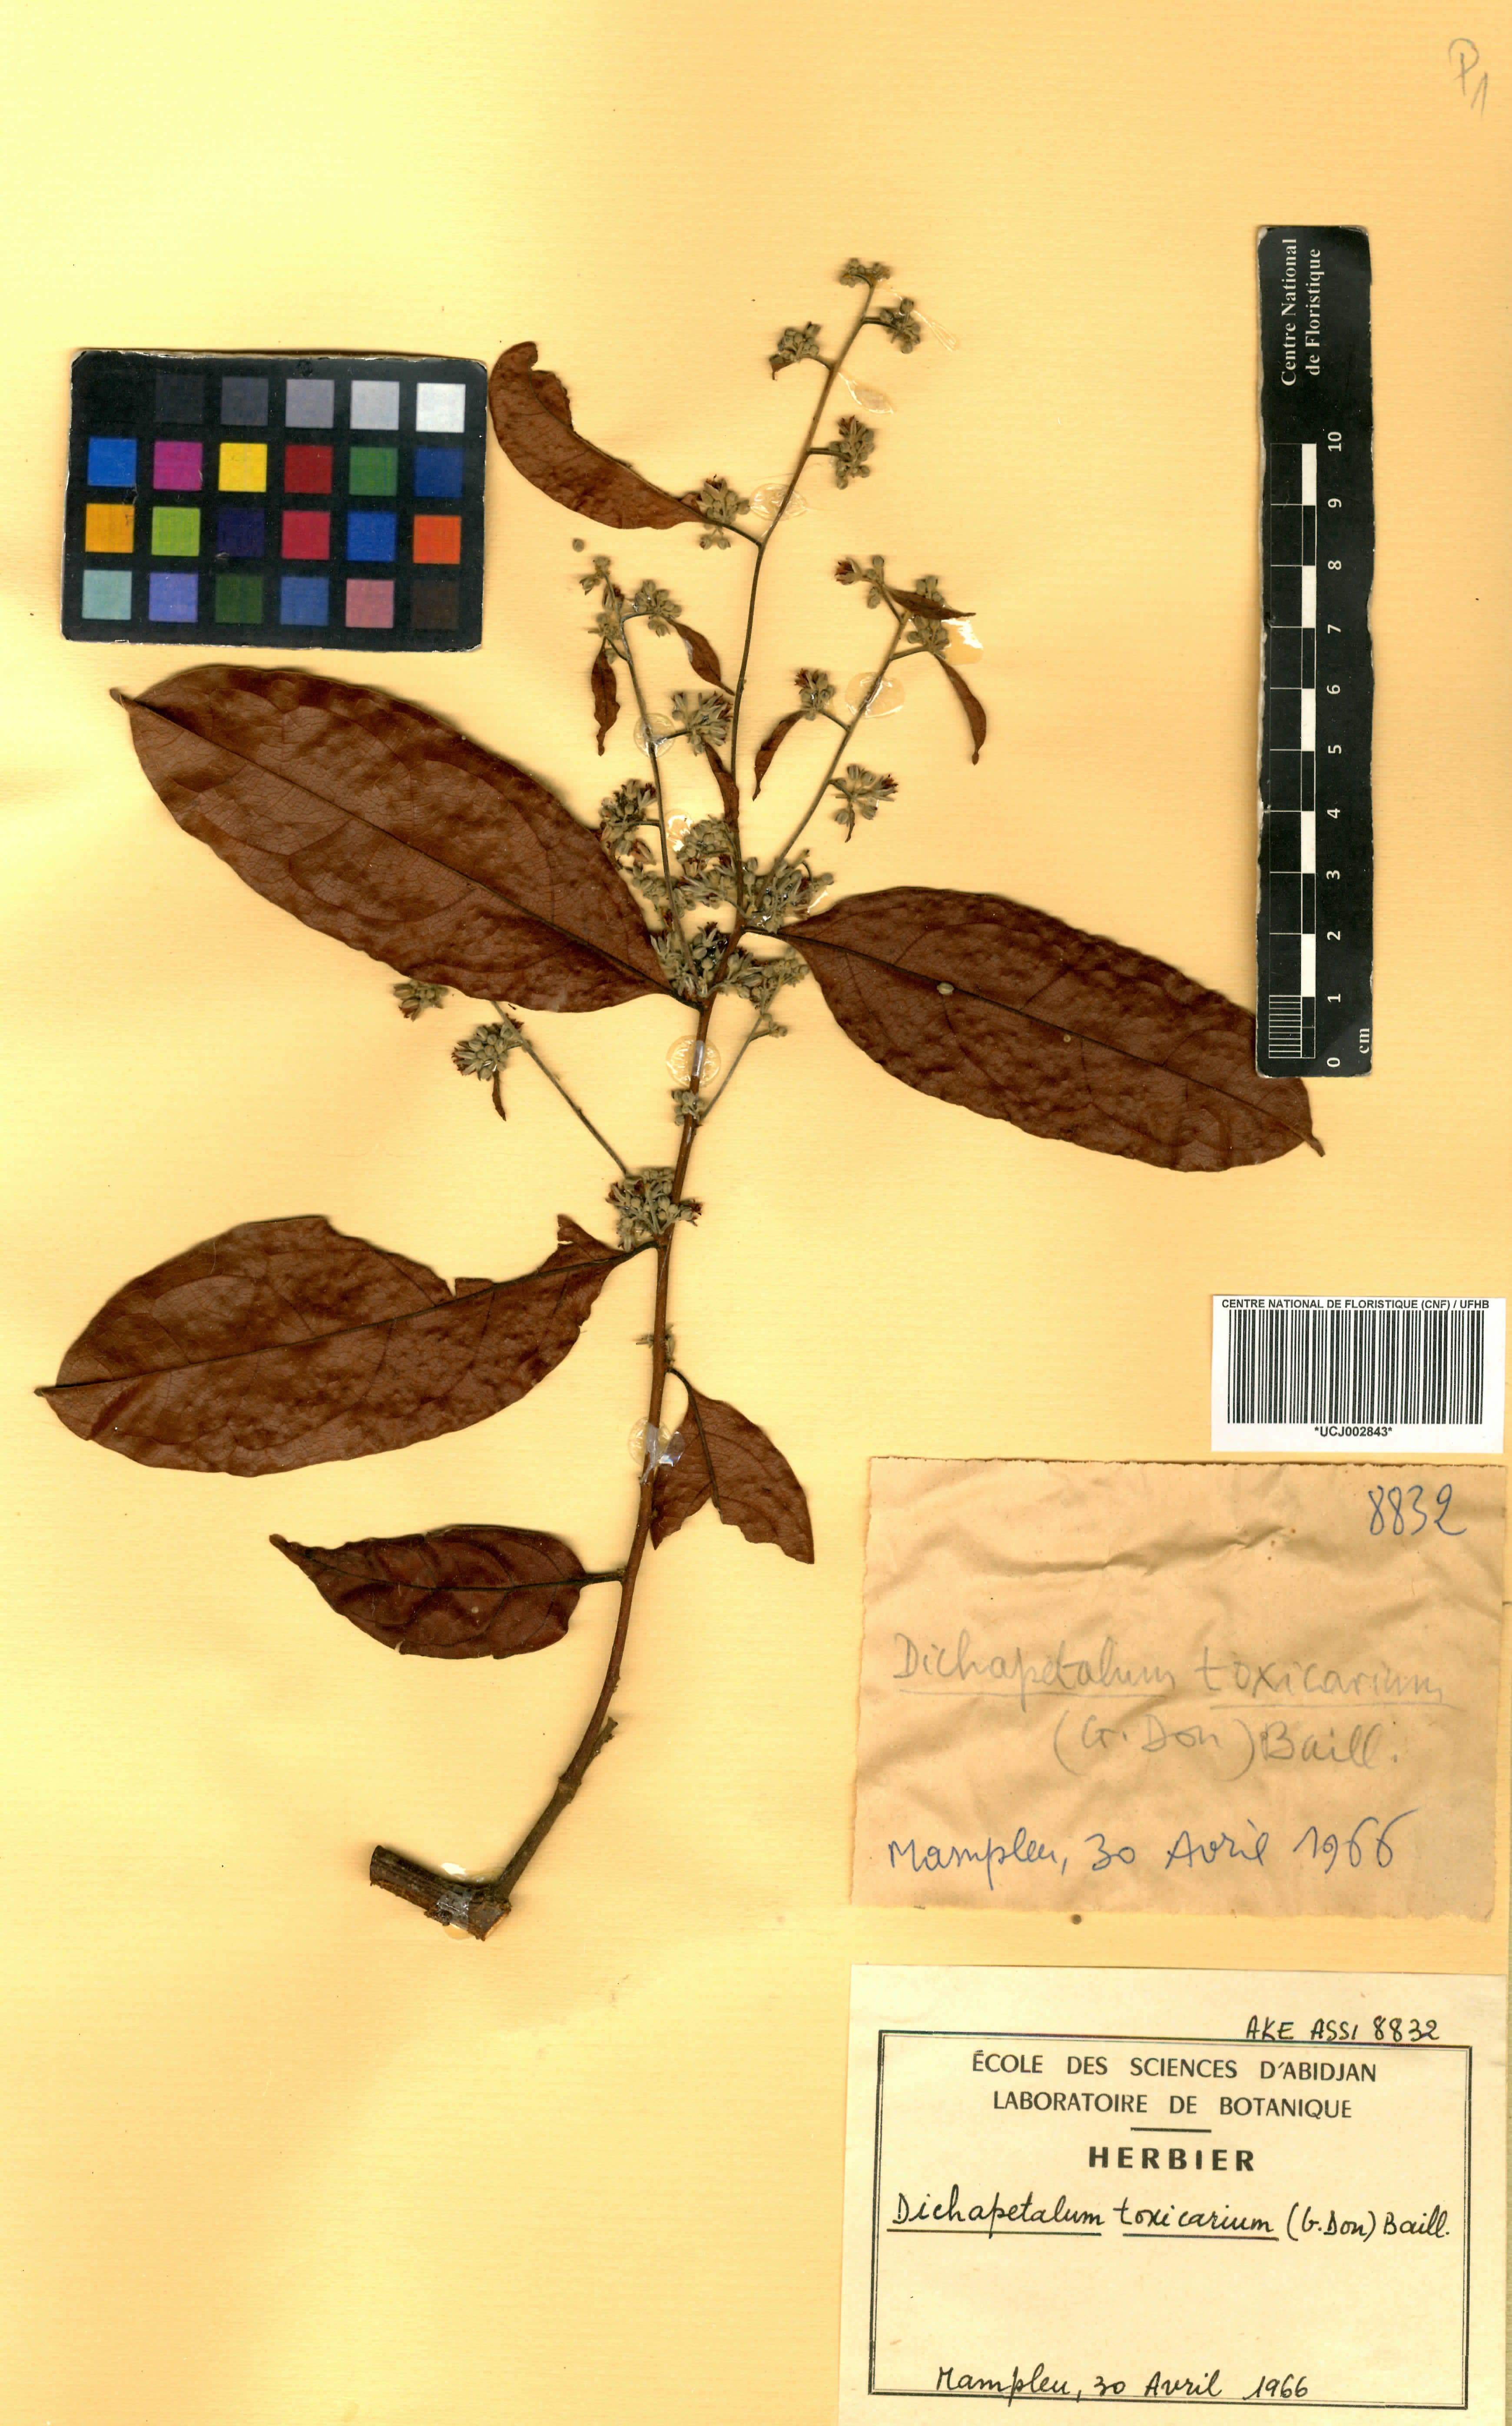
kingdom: Plantae
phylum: Tracheophyta
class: Magnoliopsida
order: Malpighiales
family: Dichapetalaceae
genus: Dichapetalum
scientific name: Dichapetalum toxicarium
